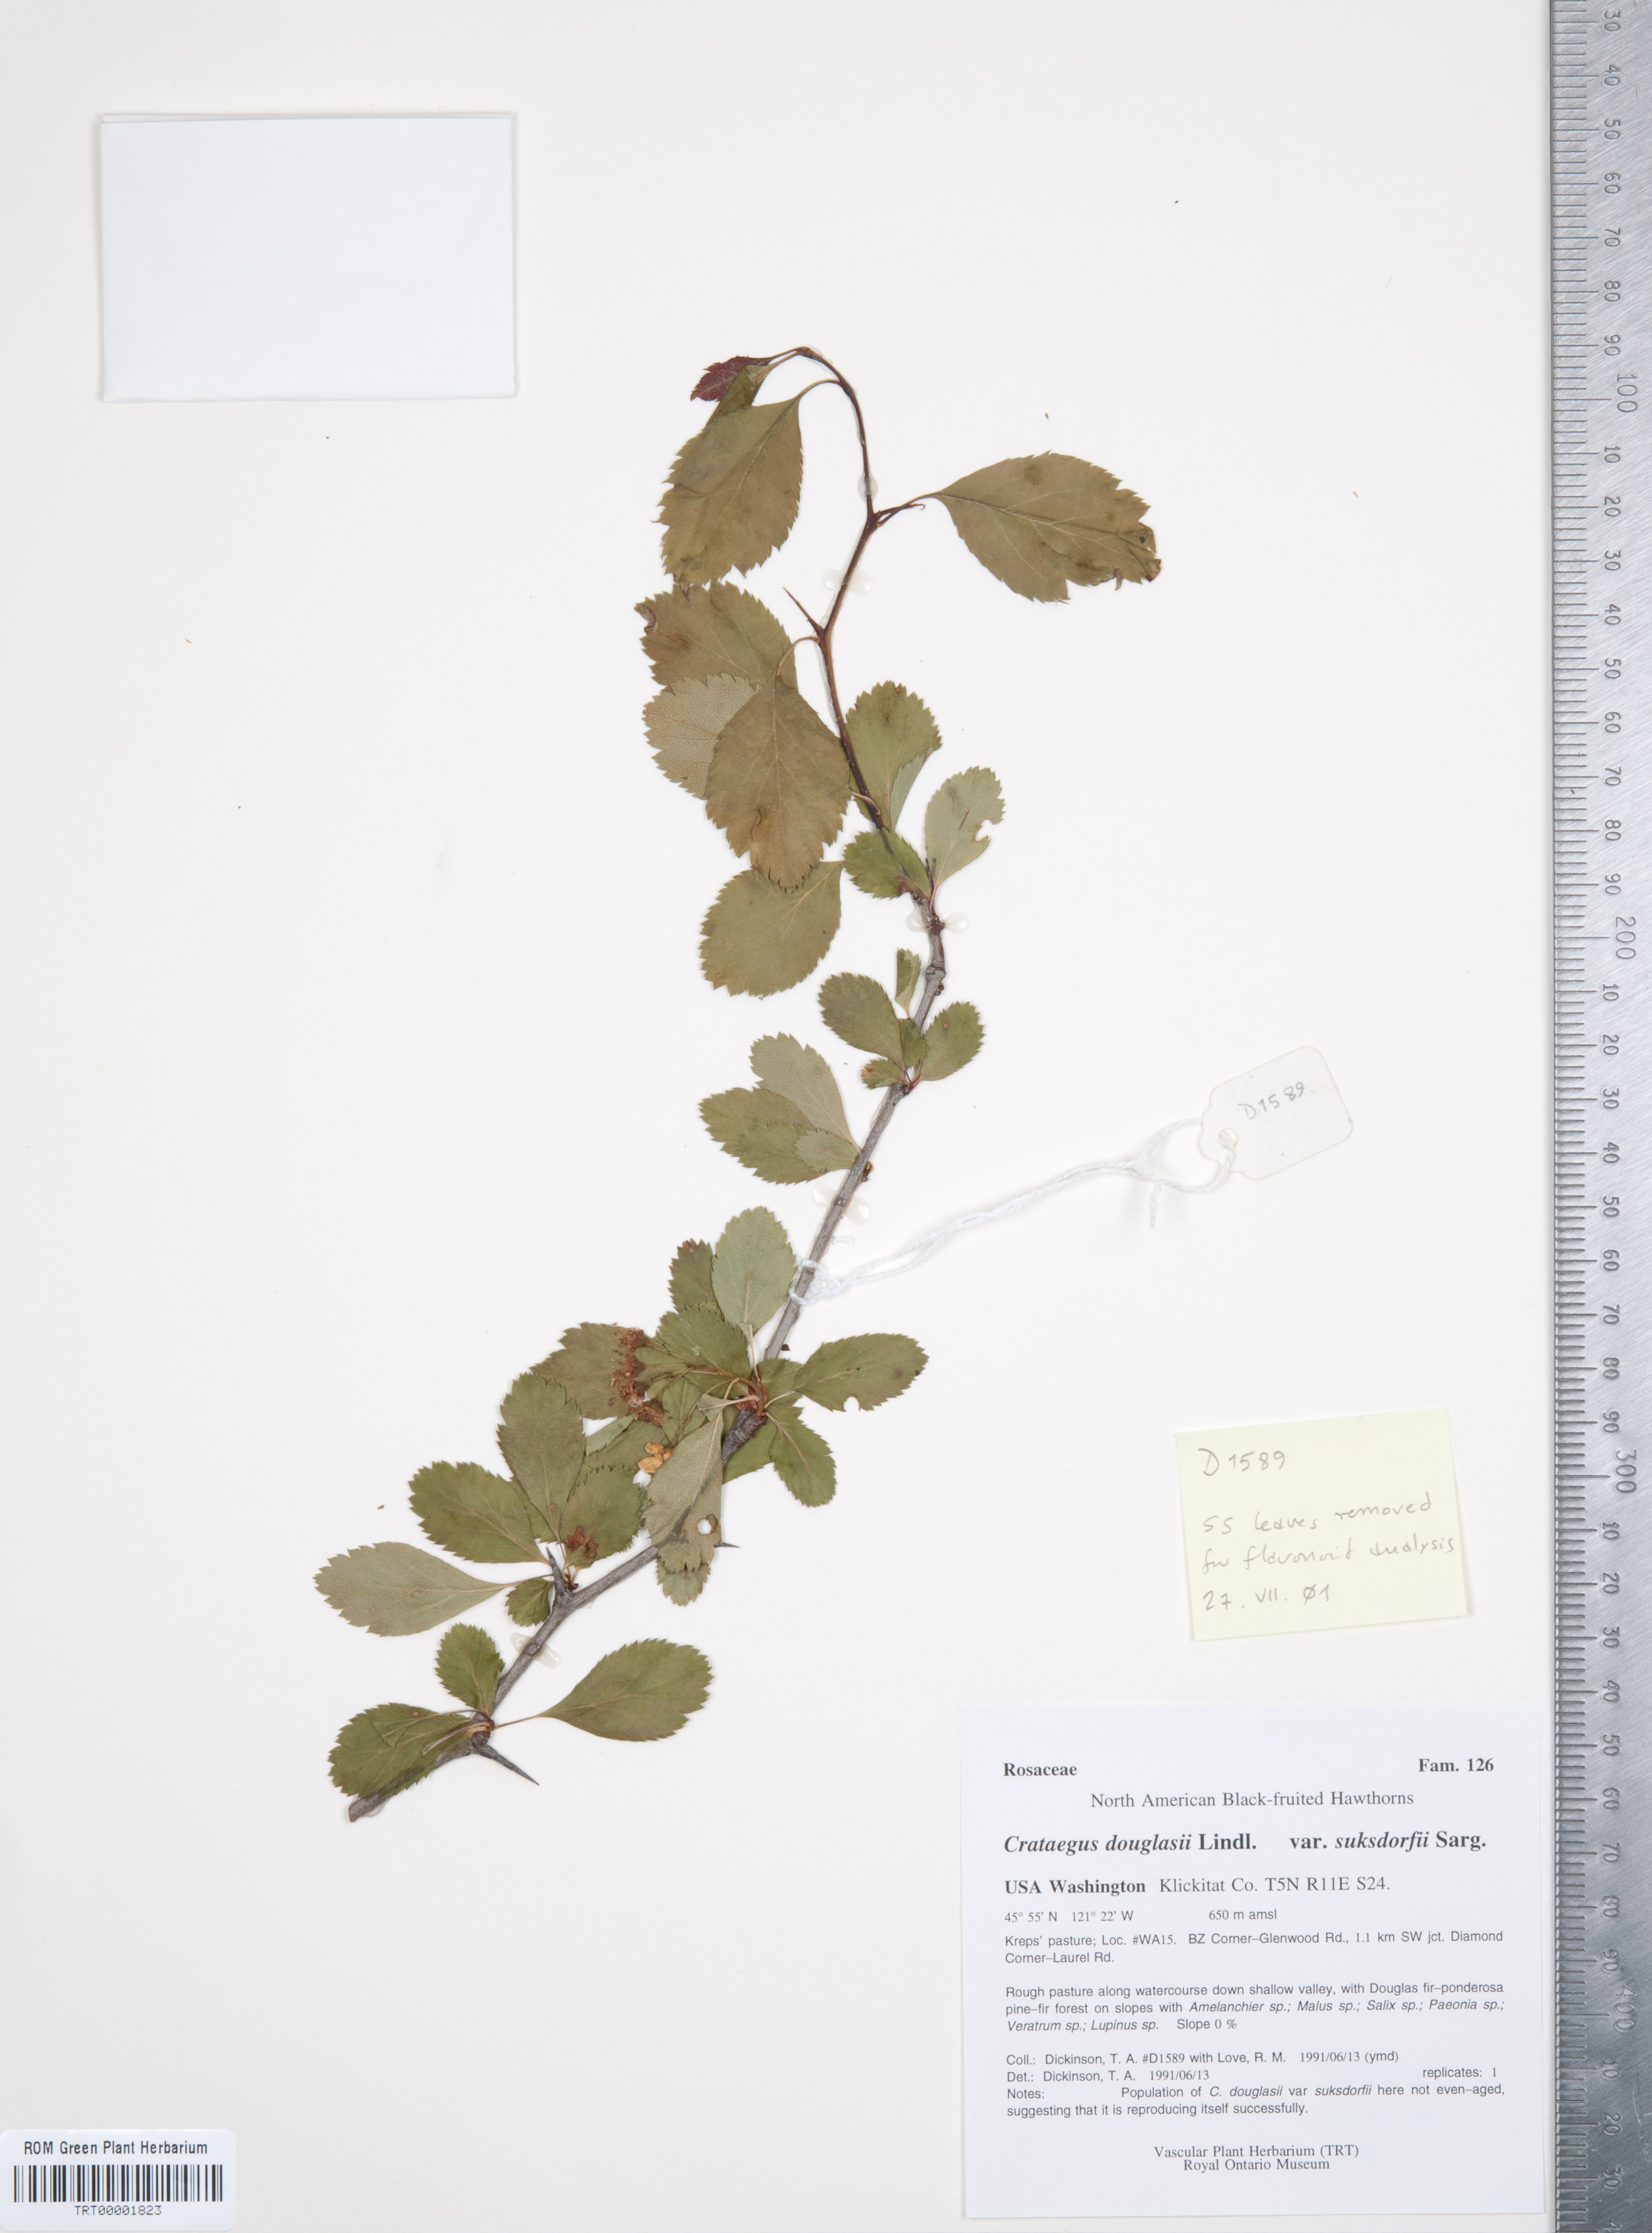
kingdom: Plantae
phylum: Tracheophyta
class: Magnoliopsida
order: Rosales
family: Rosaceae
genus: Crataegus
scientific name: Crataegus gaylussacia
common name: Huckleberry hawthorn
